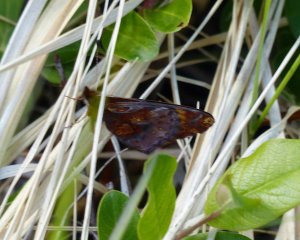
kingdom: Animalia
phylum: Arthropoda
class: Insecta
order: Lepidoptera
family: Nymphalidae
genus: Clossiana
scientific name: Clossiana toddi
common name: Meadow Fritillary
